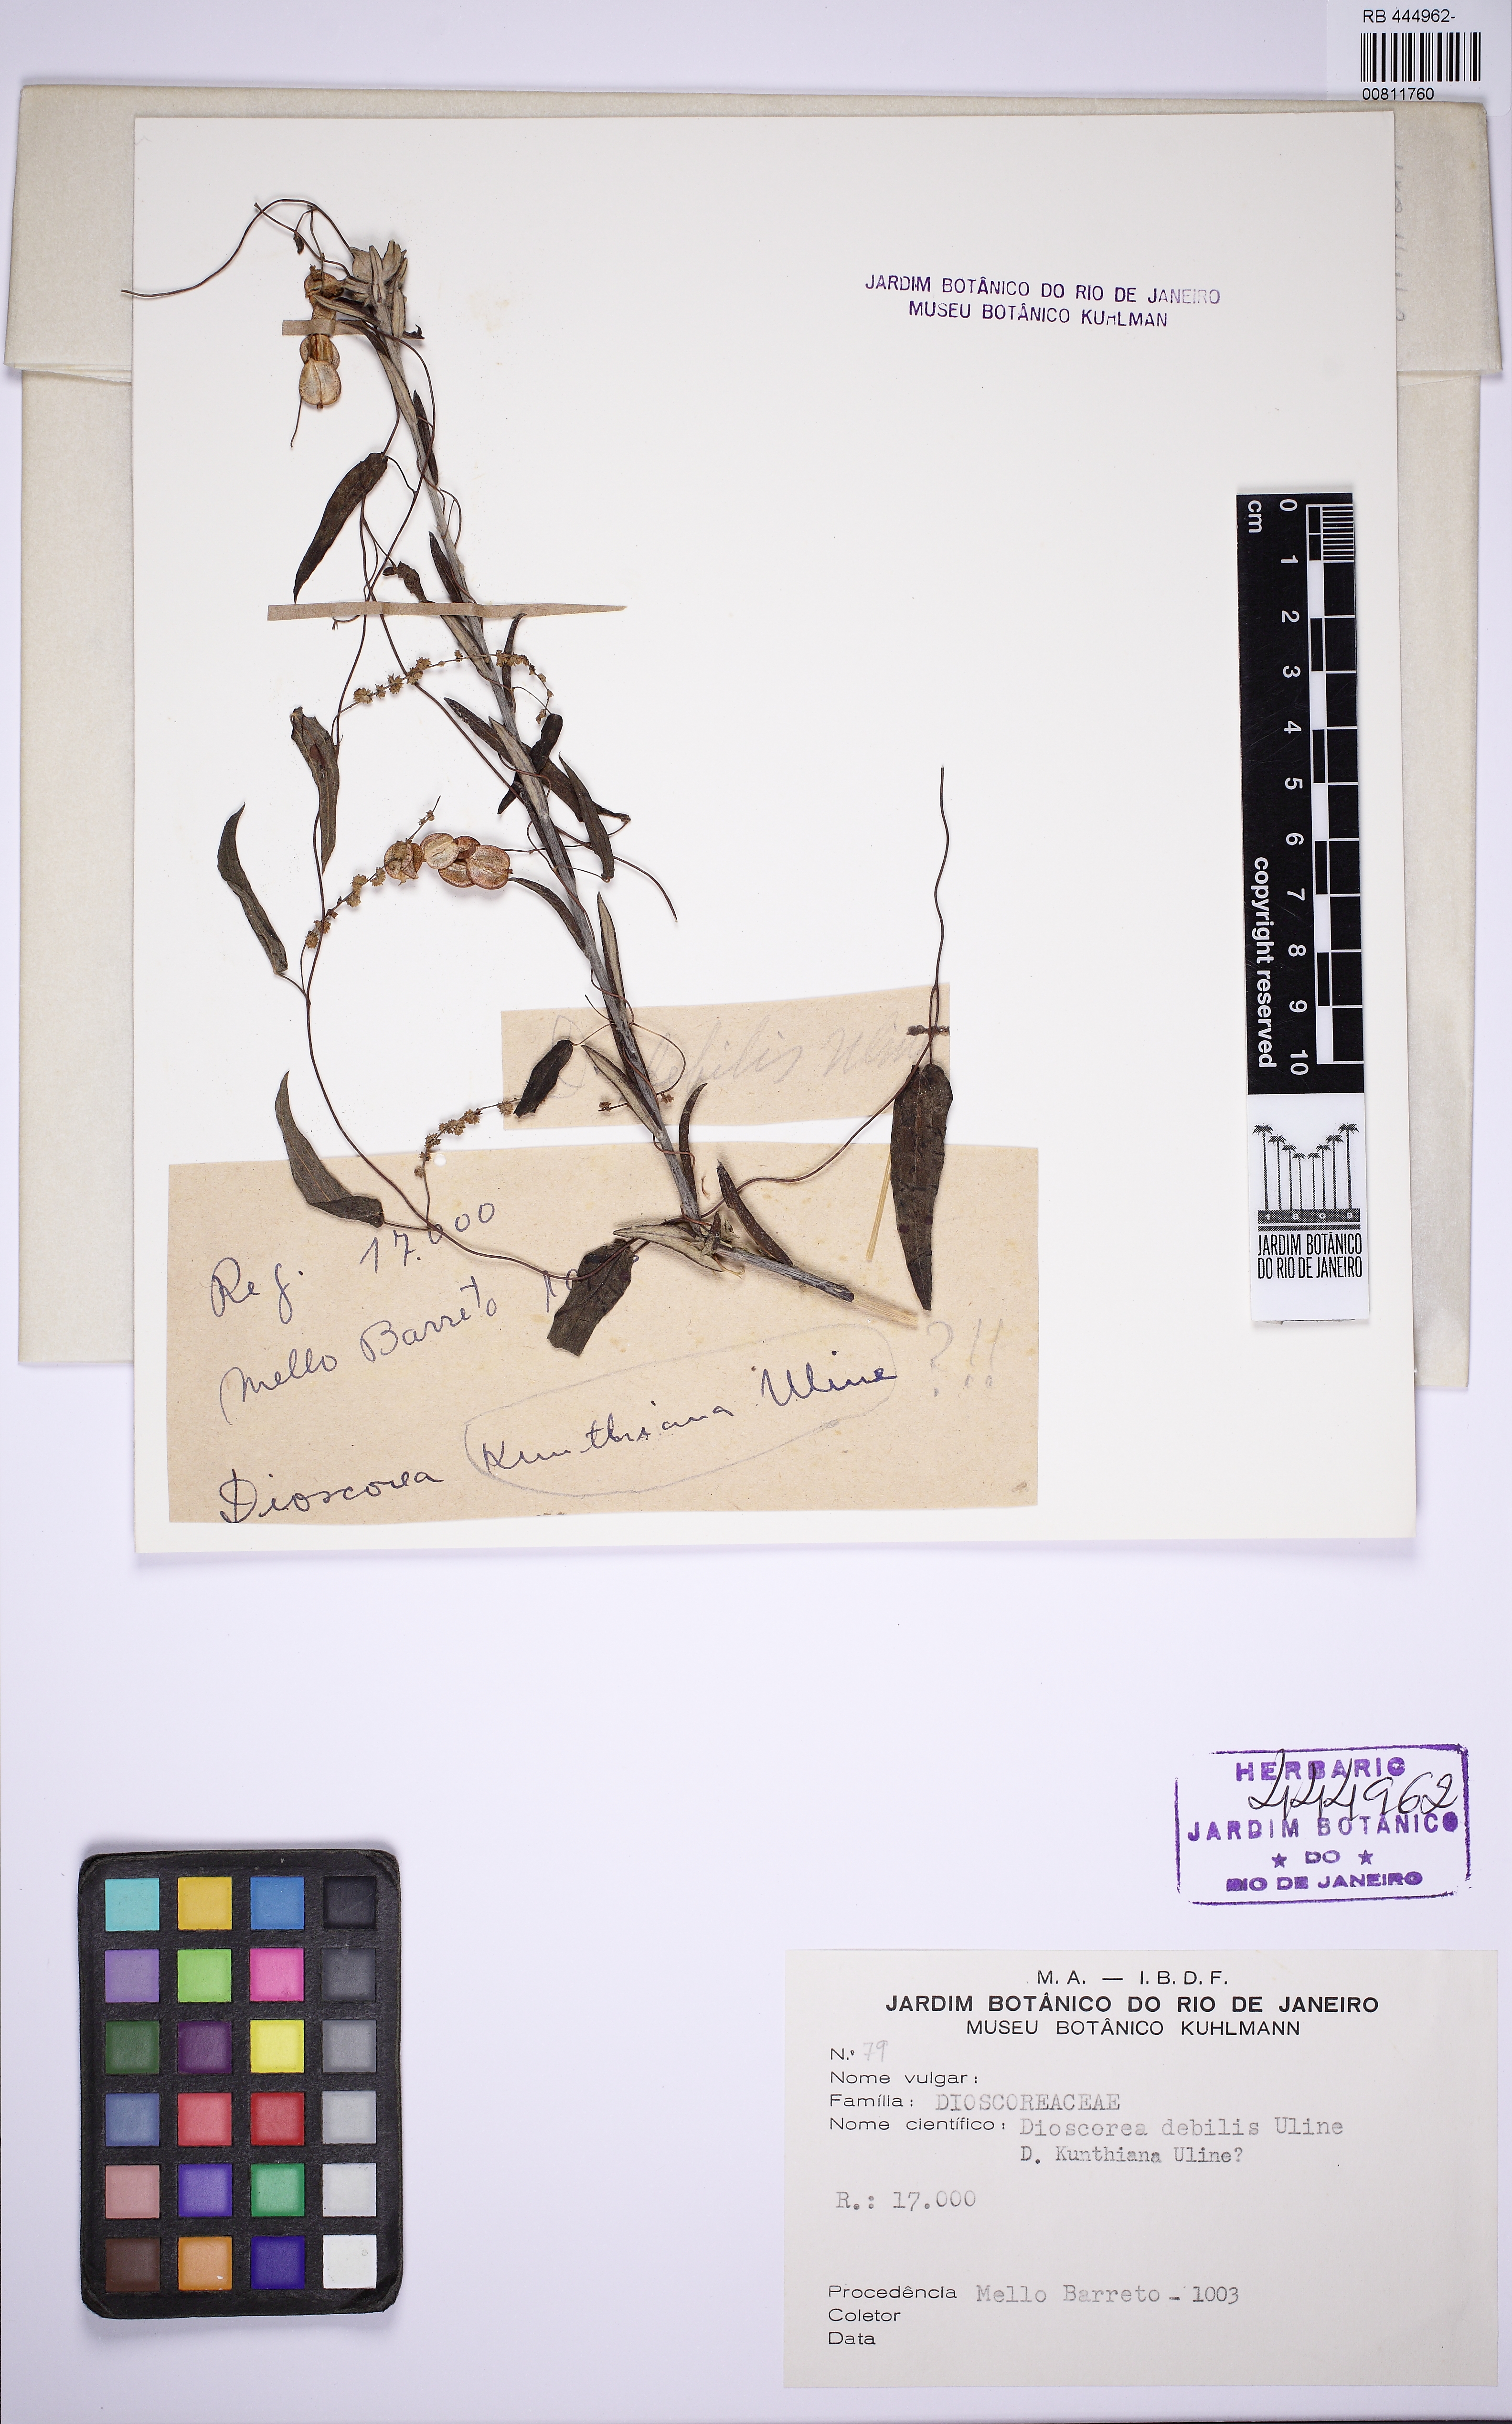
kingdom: Plantae
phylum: Tracheophyta
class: Liliopsida
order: Dioscoreales
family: Dioscoreaceae
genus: Dioscorea
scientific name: Dioscorea debilis
